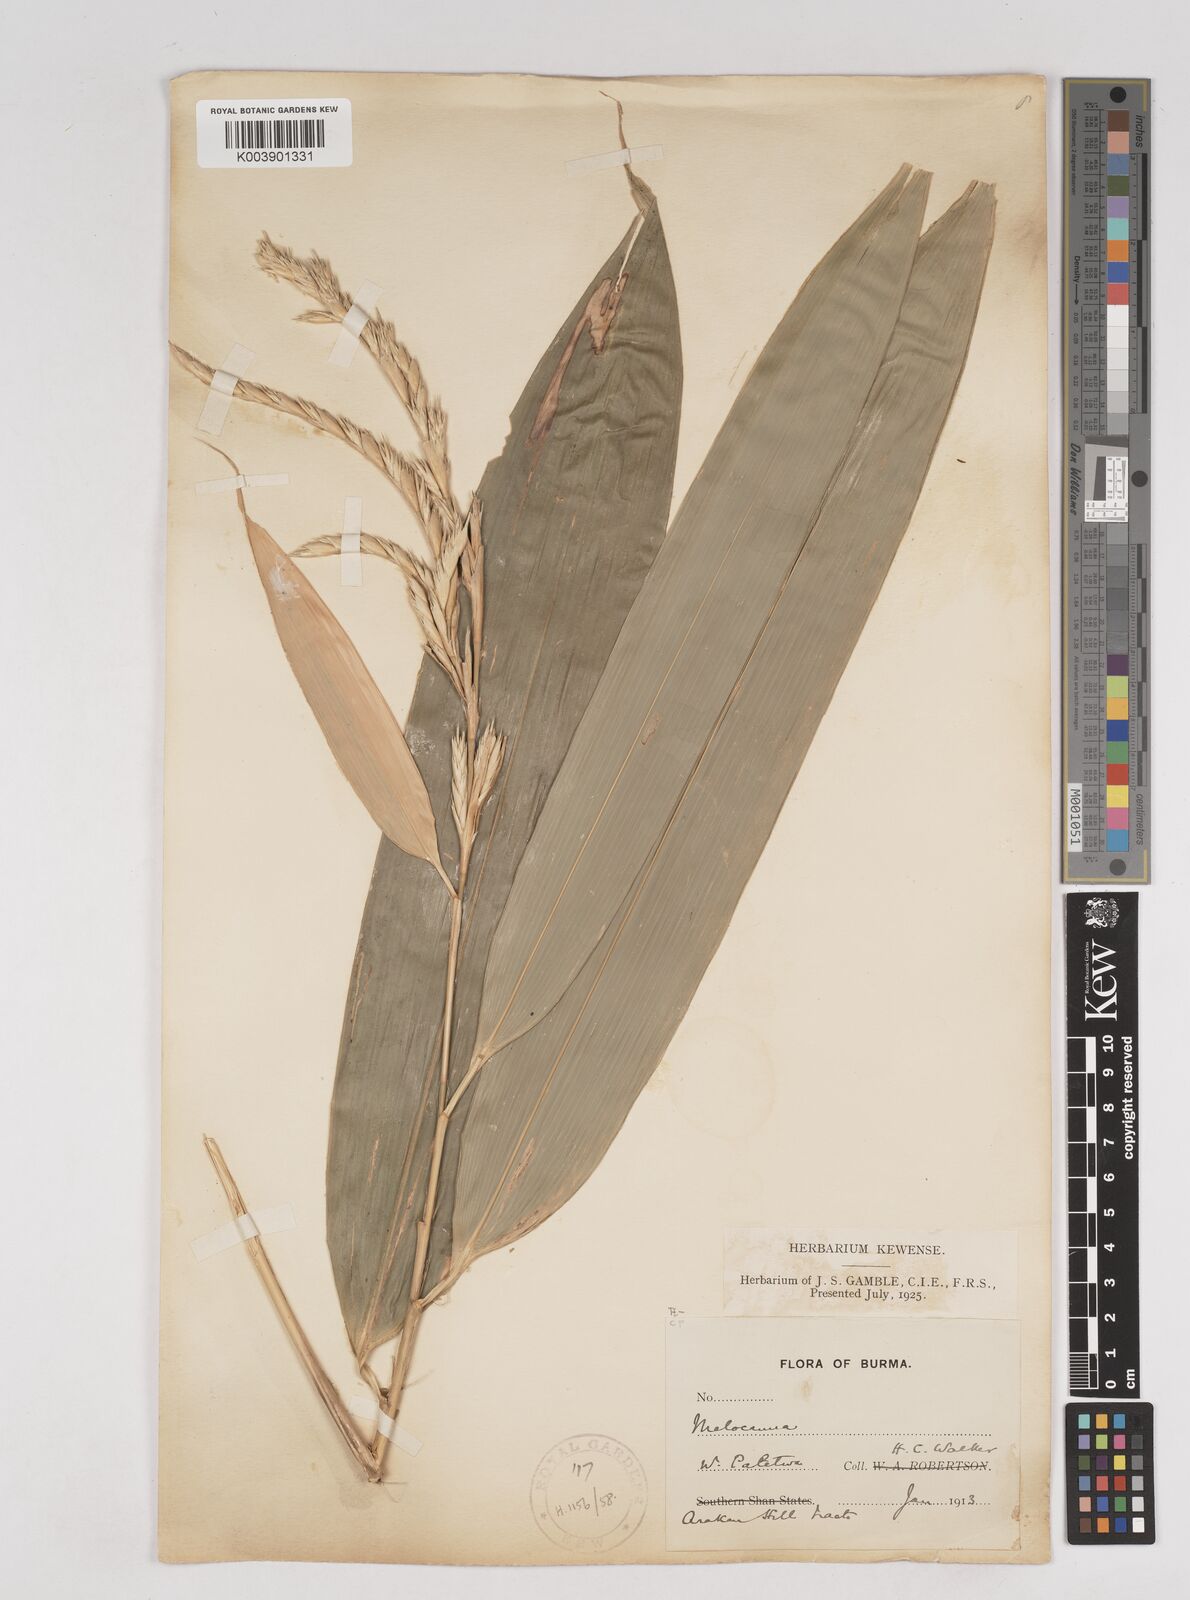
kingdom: Plantae
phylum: Tracheophyta
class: Liliopsida
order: Poales
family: Poaceae
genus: Melocanna
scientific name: Melocanna
